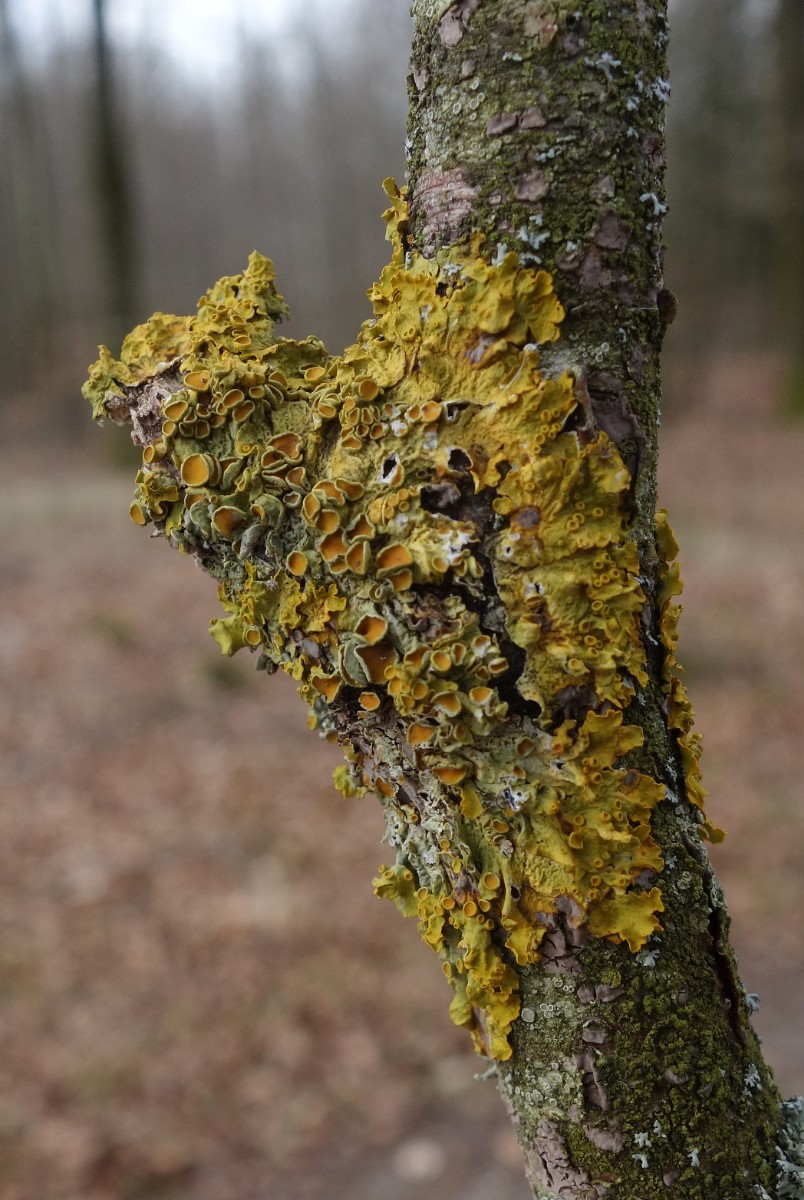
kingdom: Fungi
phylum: Ascomycota
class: Lecanoromycetes
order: Teloschistales
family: Teloschistaceae
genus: Xanthoria
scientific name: Xanthoria parietina
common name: almindelig væggelav
